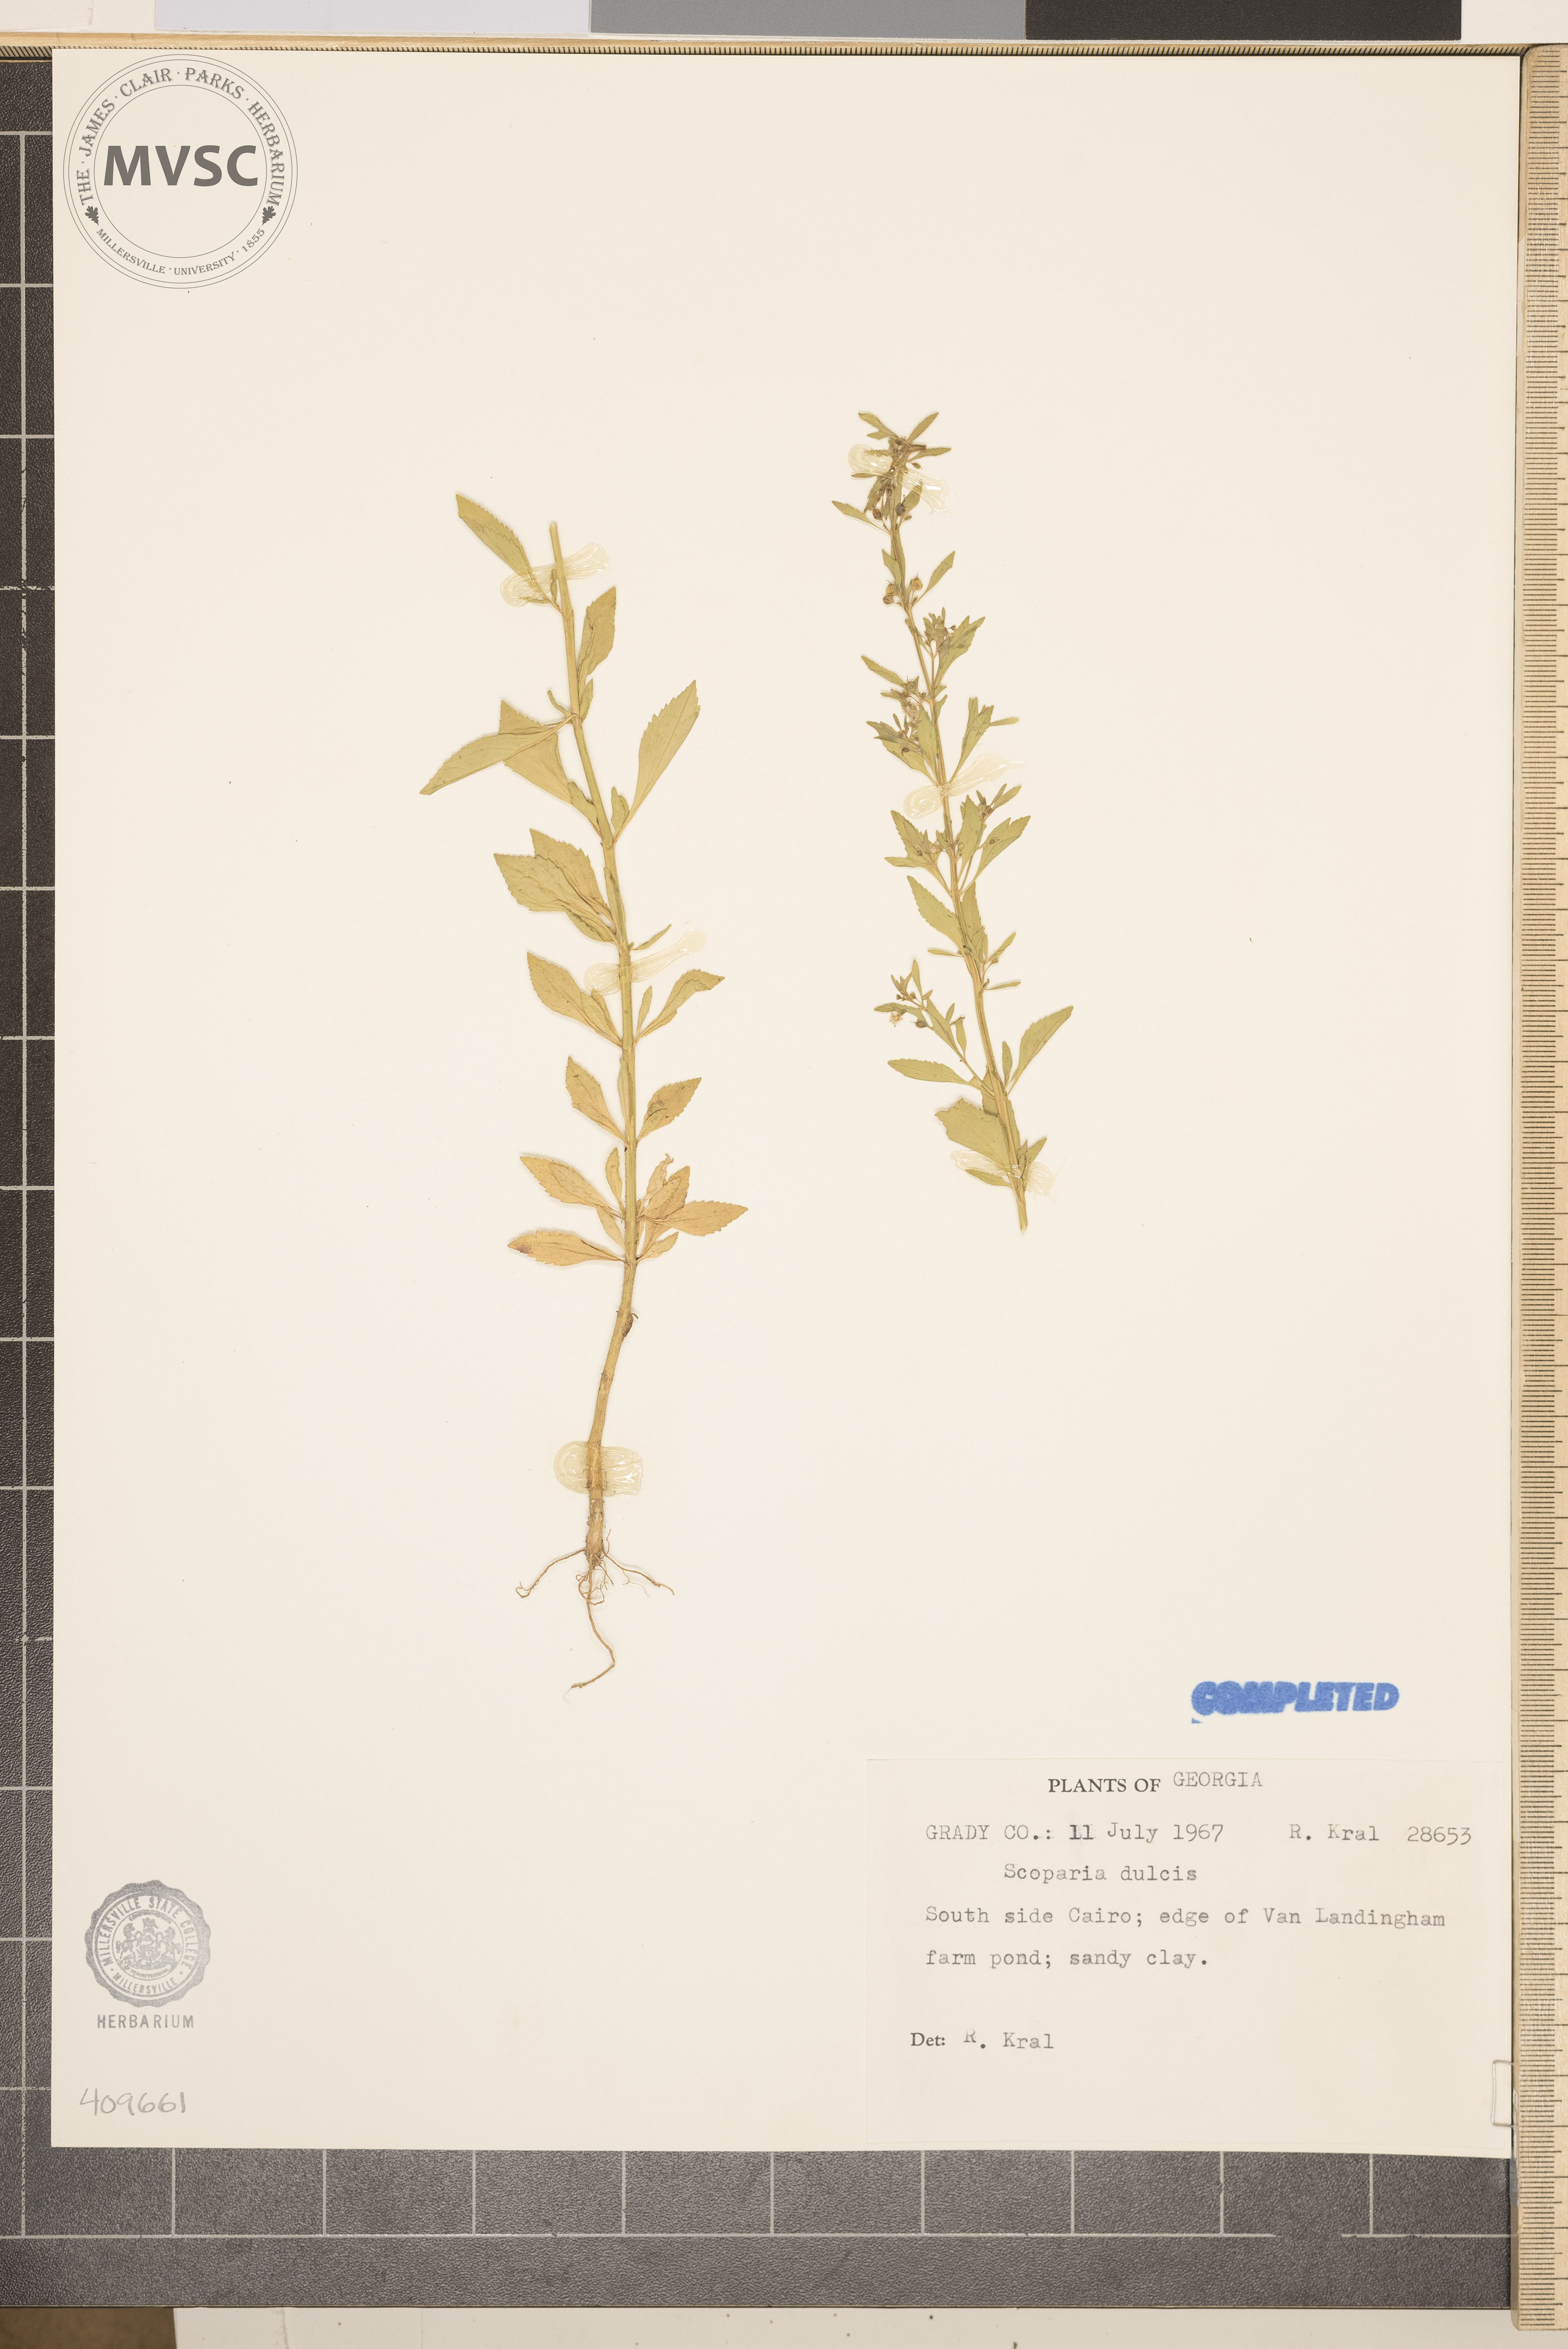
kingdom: Plantae
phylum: Tracheophyta
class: Magnoliopsida
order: Lamiales
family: Plantaginaceae
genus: Scoparia
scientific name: Scoparia dulcis
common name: Scoparia-weed
